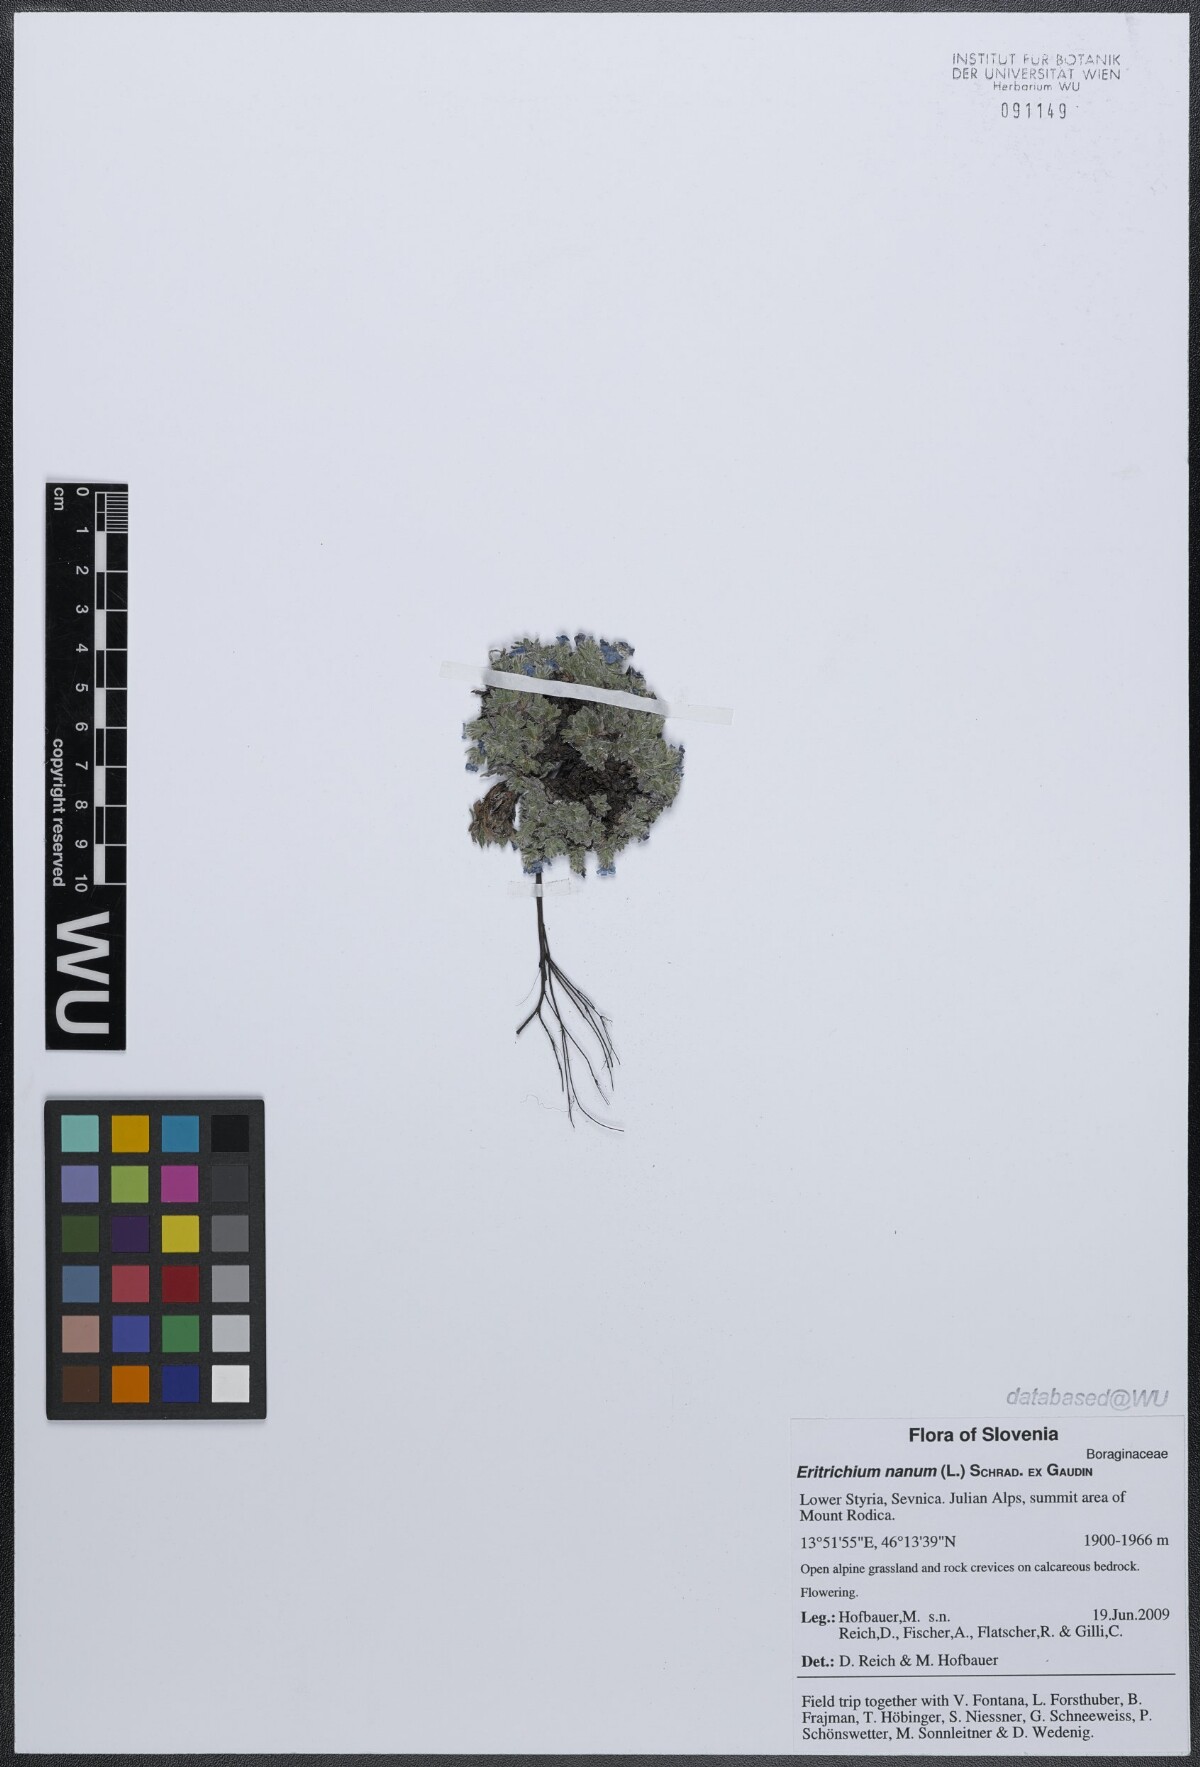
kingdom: Plantae
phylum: Tracheophyta
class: Magnoliopsida
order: Boraginales
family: Boraginaceae
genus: Eritrichium
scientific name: Eritrichium nanum
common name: King-of-the-alps
